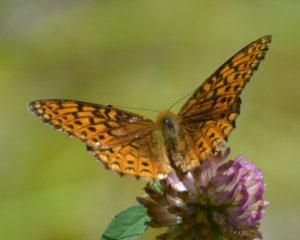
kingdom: Animalia
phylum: Arthropoda
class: Insecta
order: Lepidoptera
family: Nymphalidae
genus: Speyeria
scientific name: Speyeria atlantis
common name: Atlantis Fritillary
